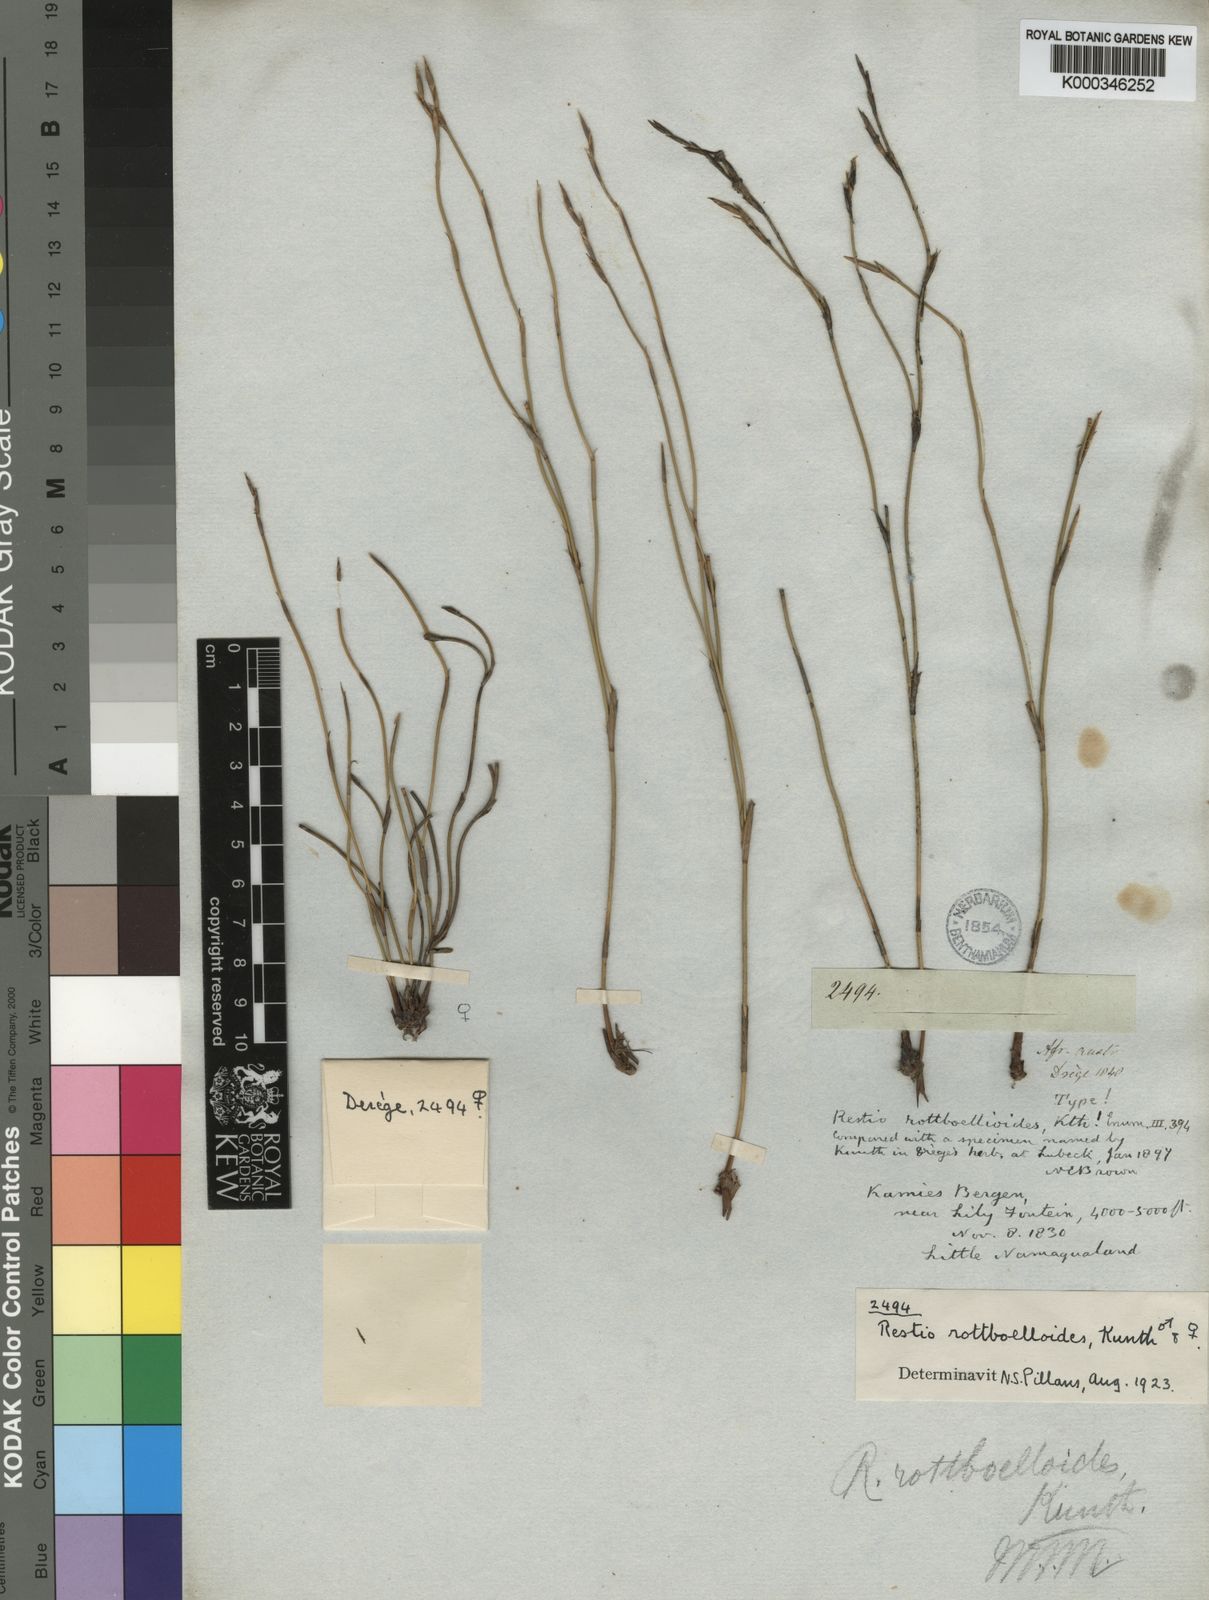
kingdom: Plantae
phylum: Tracheophyta
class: Liliopsida
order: Poales
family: Restionaceae
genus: Restio
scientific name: Restio rottboellioides
